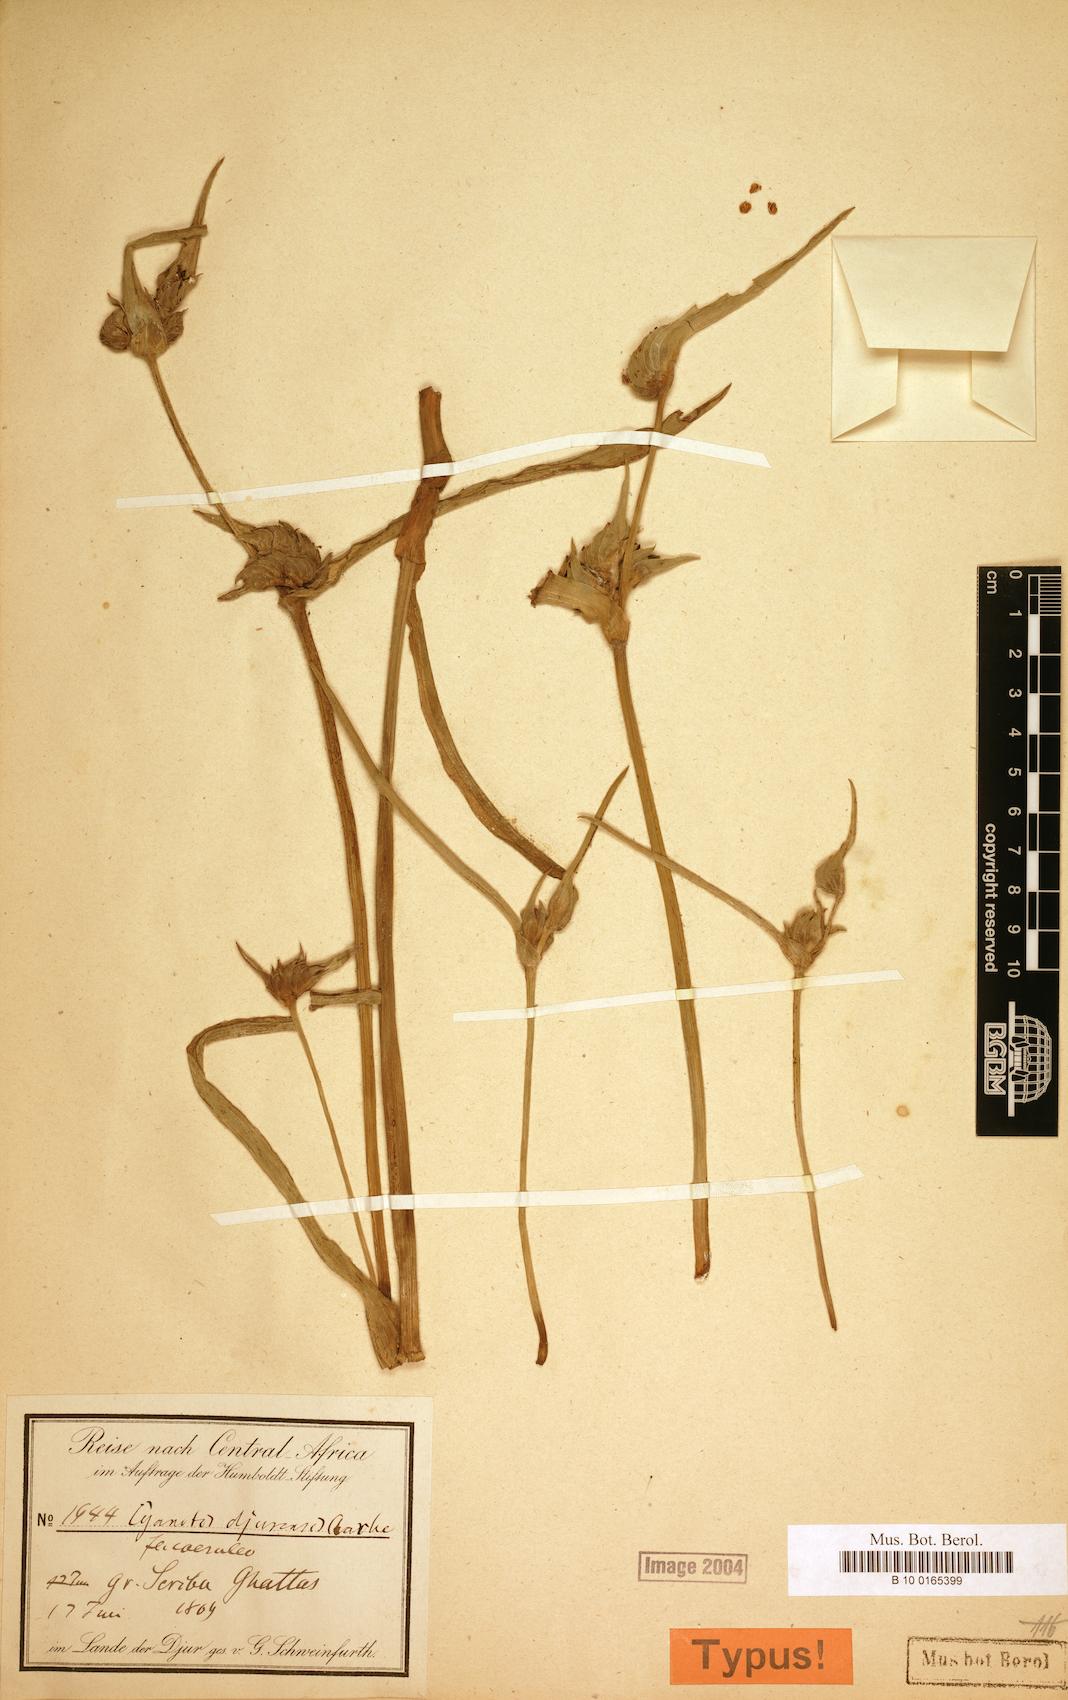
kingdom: Plantae
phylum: Tracheophyta
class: Liliopsida
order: Commelinales
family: Commelinaceae
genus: Cyanotis
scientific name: Cyanotis longifolia
